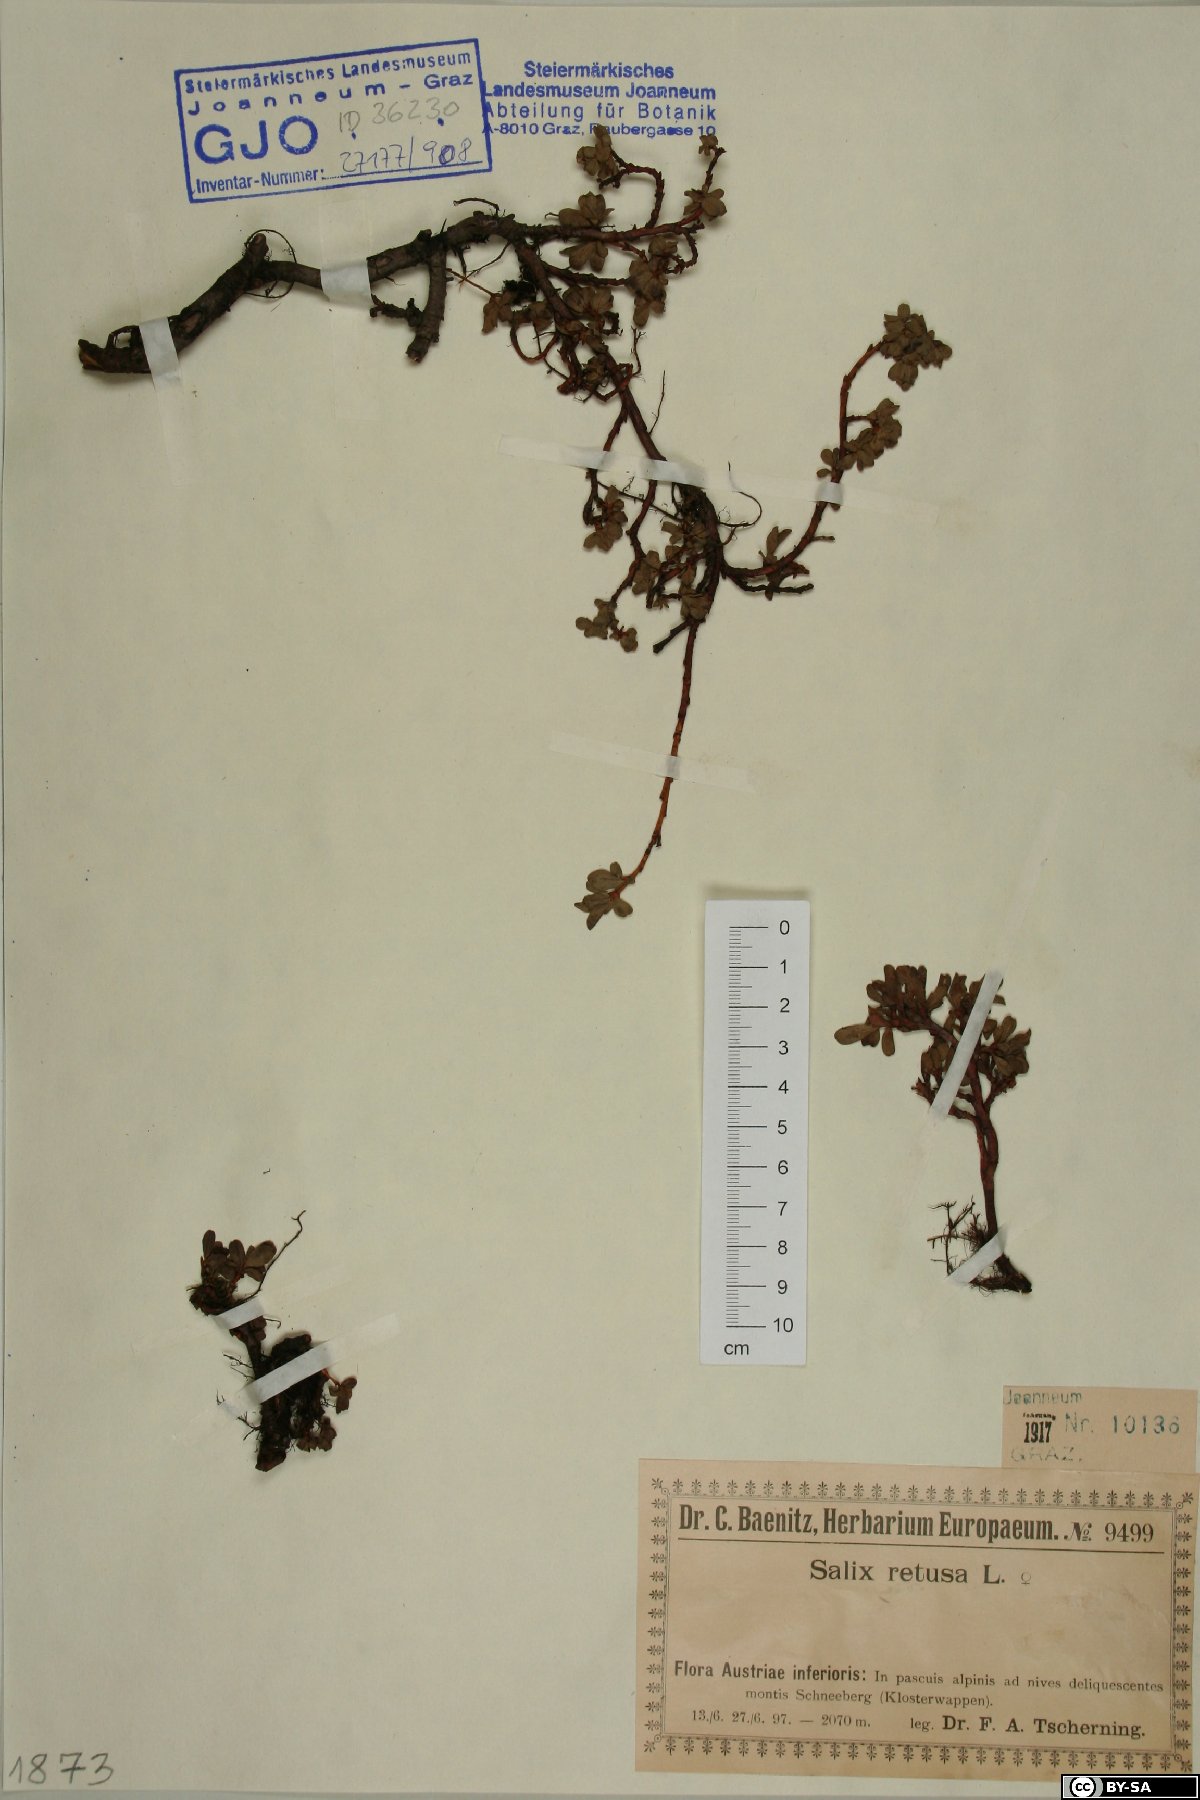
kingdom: Plantae
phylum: Tracheophyta
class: Magnoliopsida
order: Malpighiales
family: Salicaceae
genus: Salix
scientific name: Salix retusa
